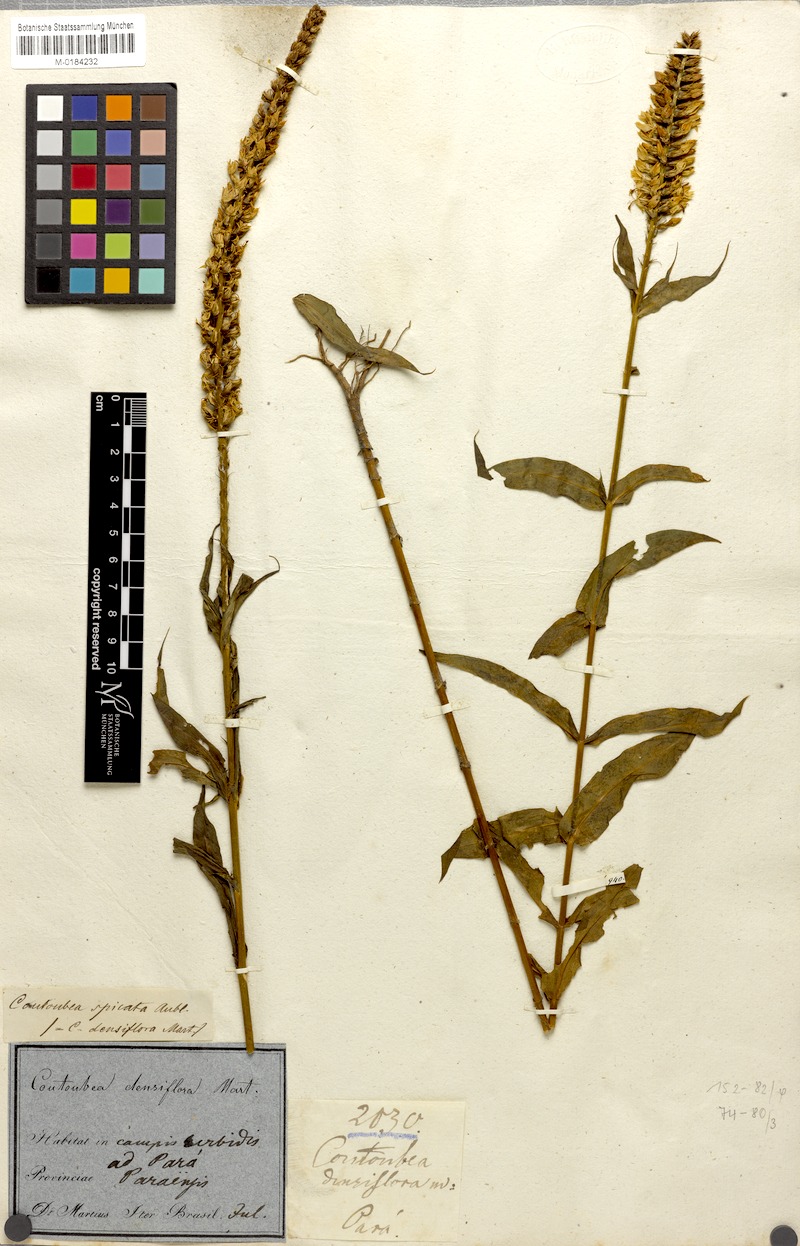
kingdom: Plantae
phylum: Tracheophyta
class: Magnoliopsida
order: Gentianales
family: Gentianaceae
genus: Coutoubea
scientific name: Coutoubea spicata
